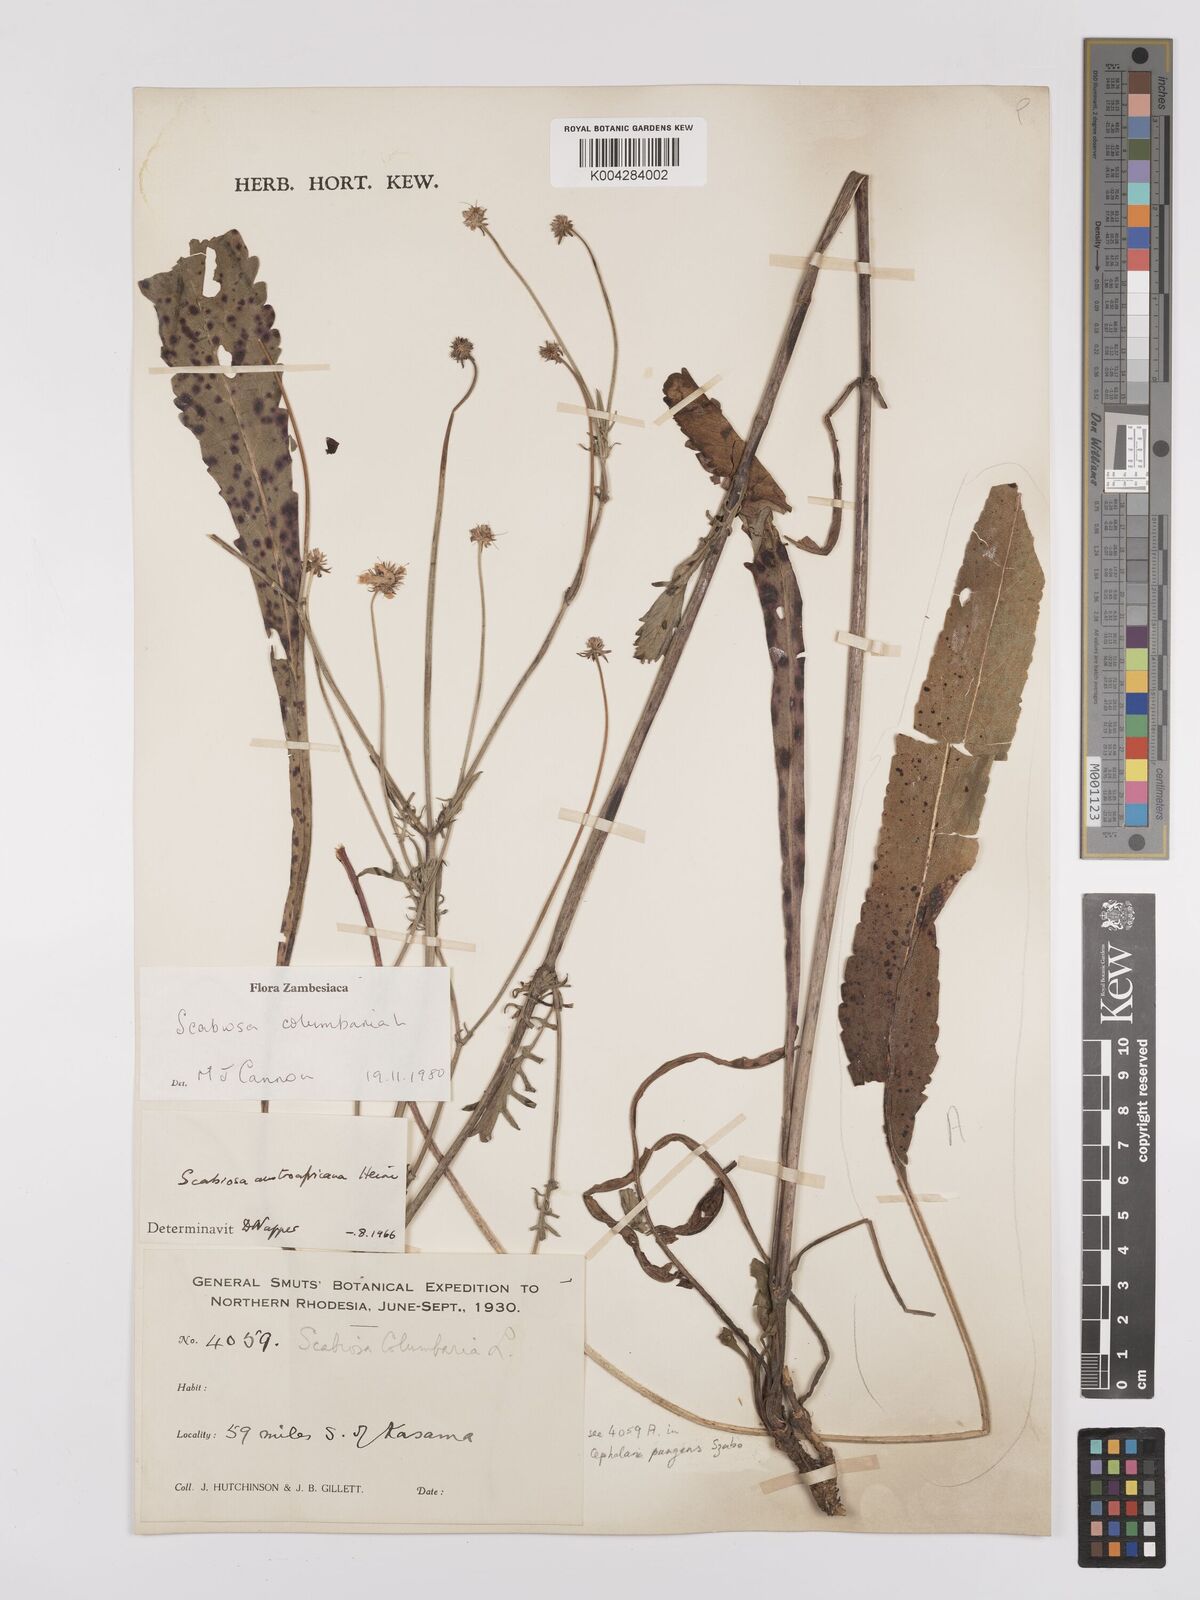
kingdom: Plantae
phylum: Tracheophyta
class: Magnoliopsida
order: Dipsacales
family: Caprifoliaceae
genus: Scabiosa
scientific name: Scabiosa austroafricana
